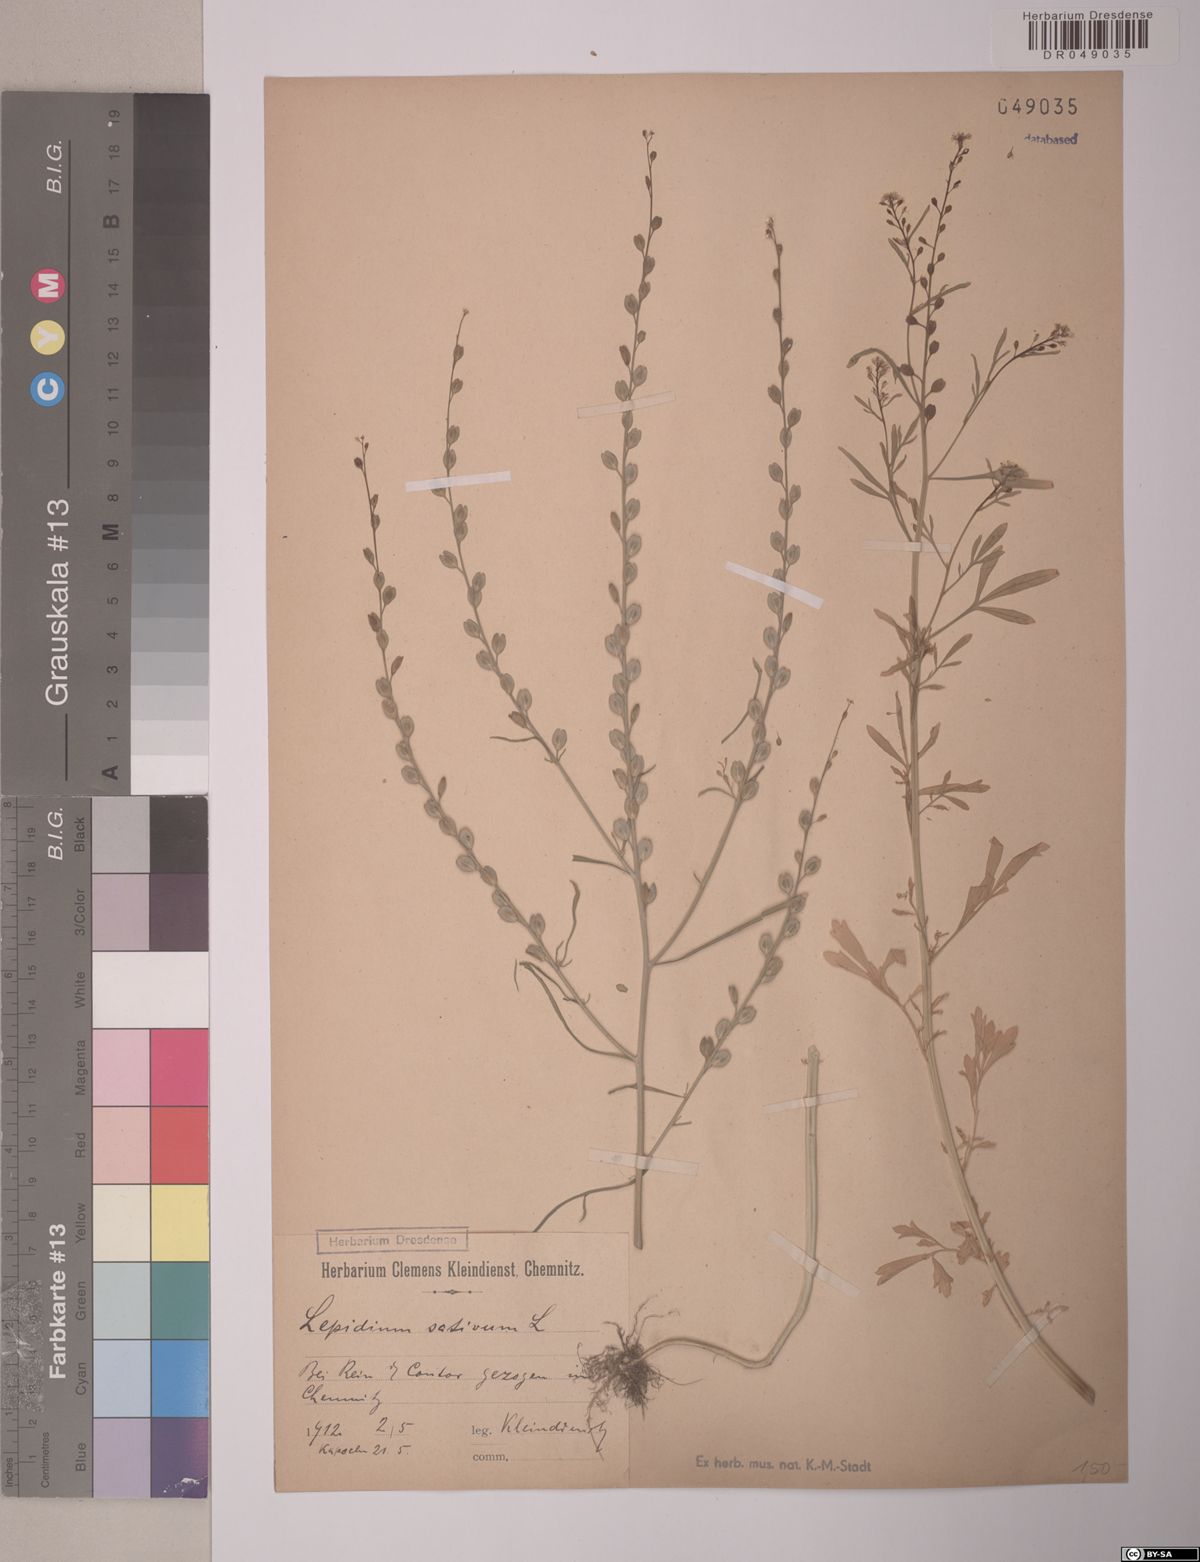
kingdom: Plantae
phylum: Tracheophyta
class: Magnoliopsida
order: Brassicales
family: Brassicaceae
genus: Lepidium
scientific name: Lepidium sativum
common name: Garden cress
